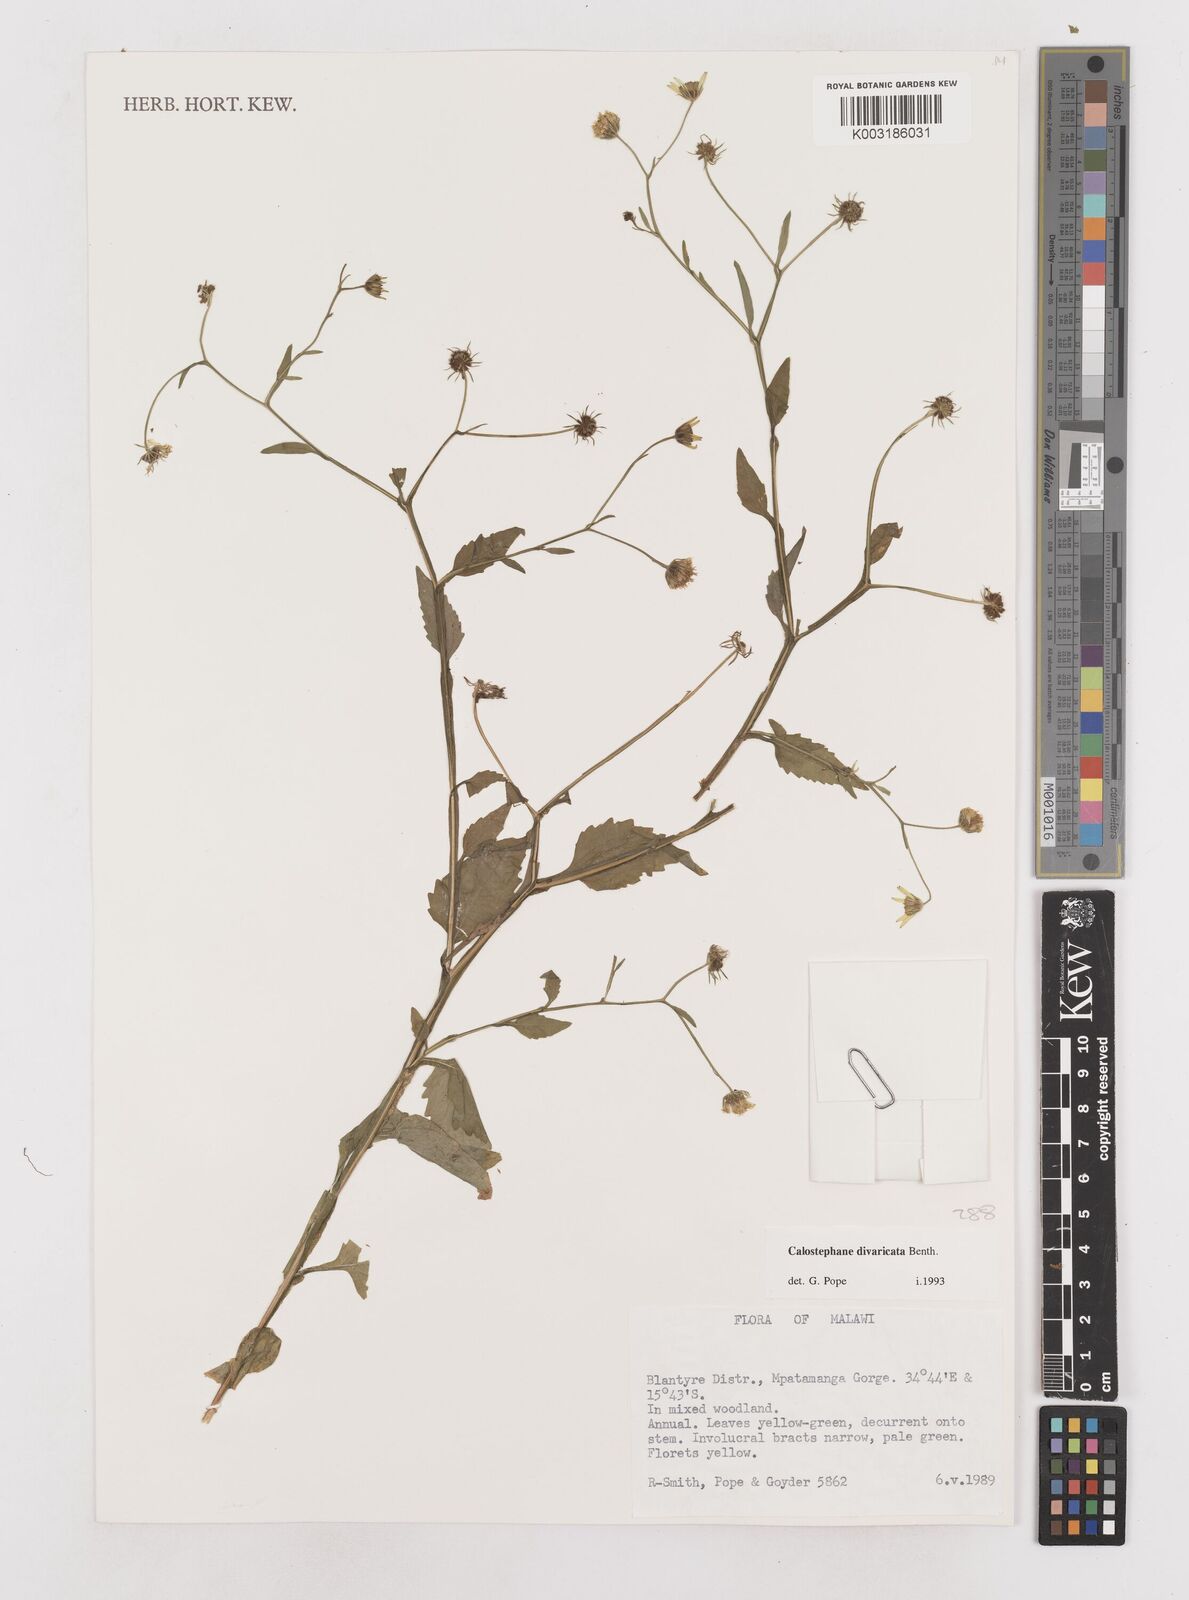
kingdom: Plantae
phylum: Tracheophyta
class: Magnoliopsida
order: Asterales
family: Asteraceae
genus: Calostephane
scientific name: Calostephane divaricata
